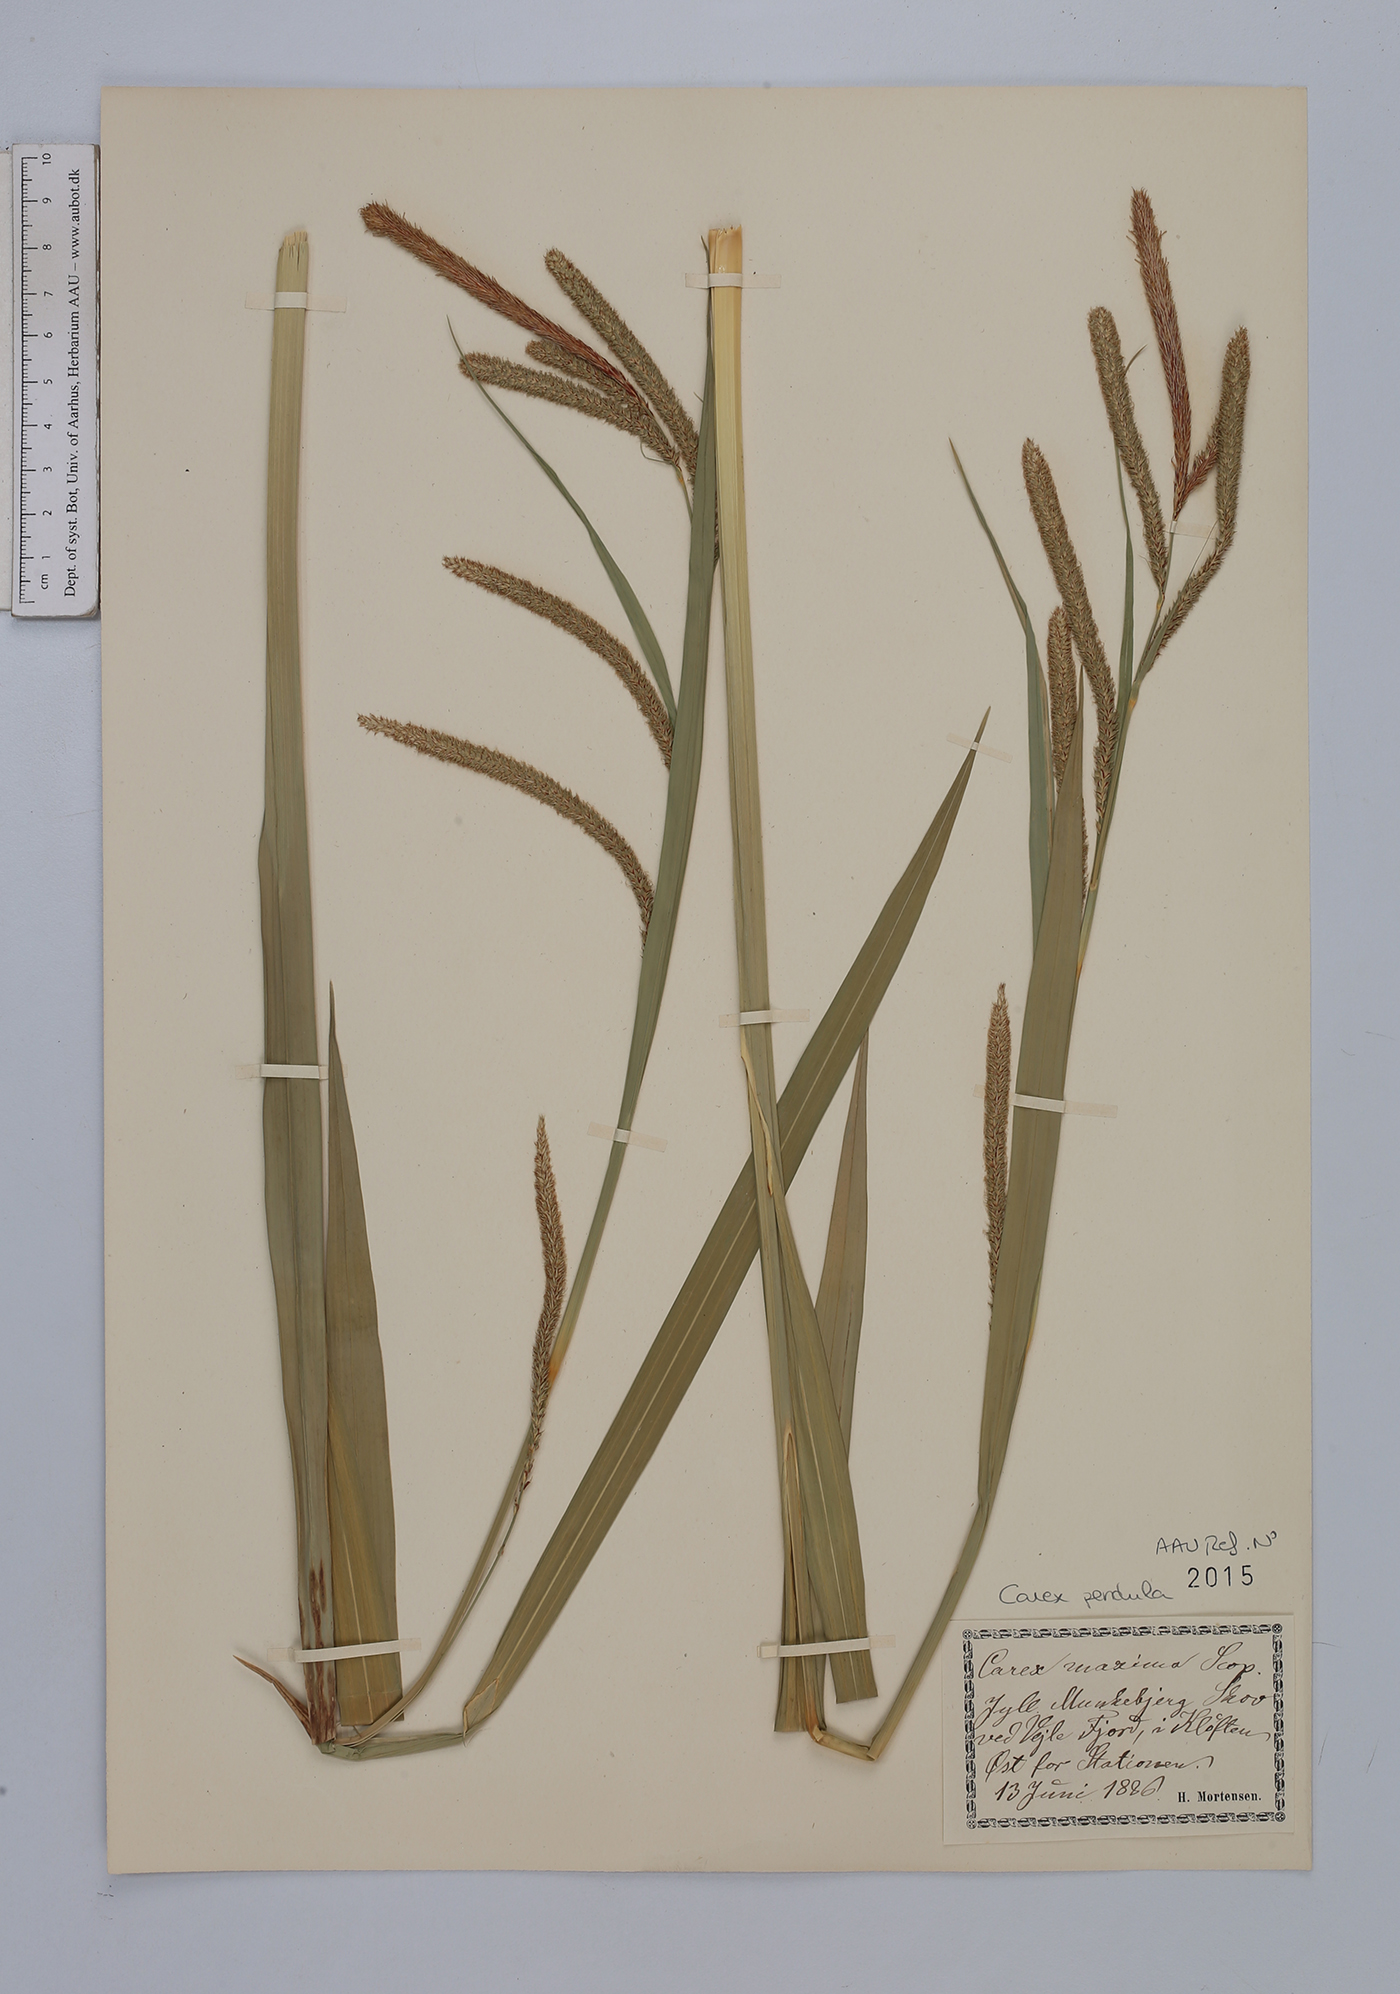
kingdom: Plantae
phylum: Tracheophyta
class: Liliopsida
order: Poales
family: Cyperaceae
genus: Carex
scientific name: Carex pendula
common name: Pendulous sedge
